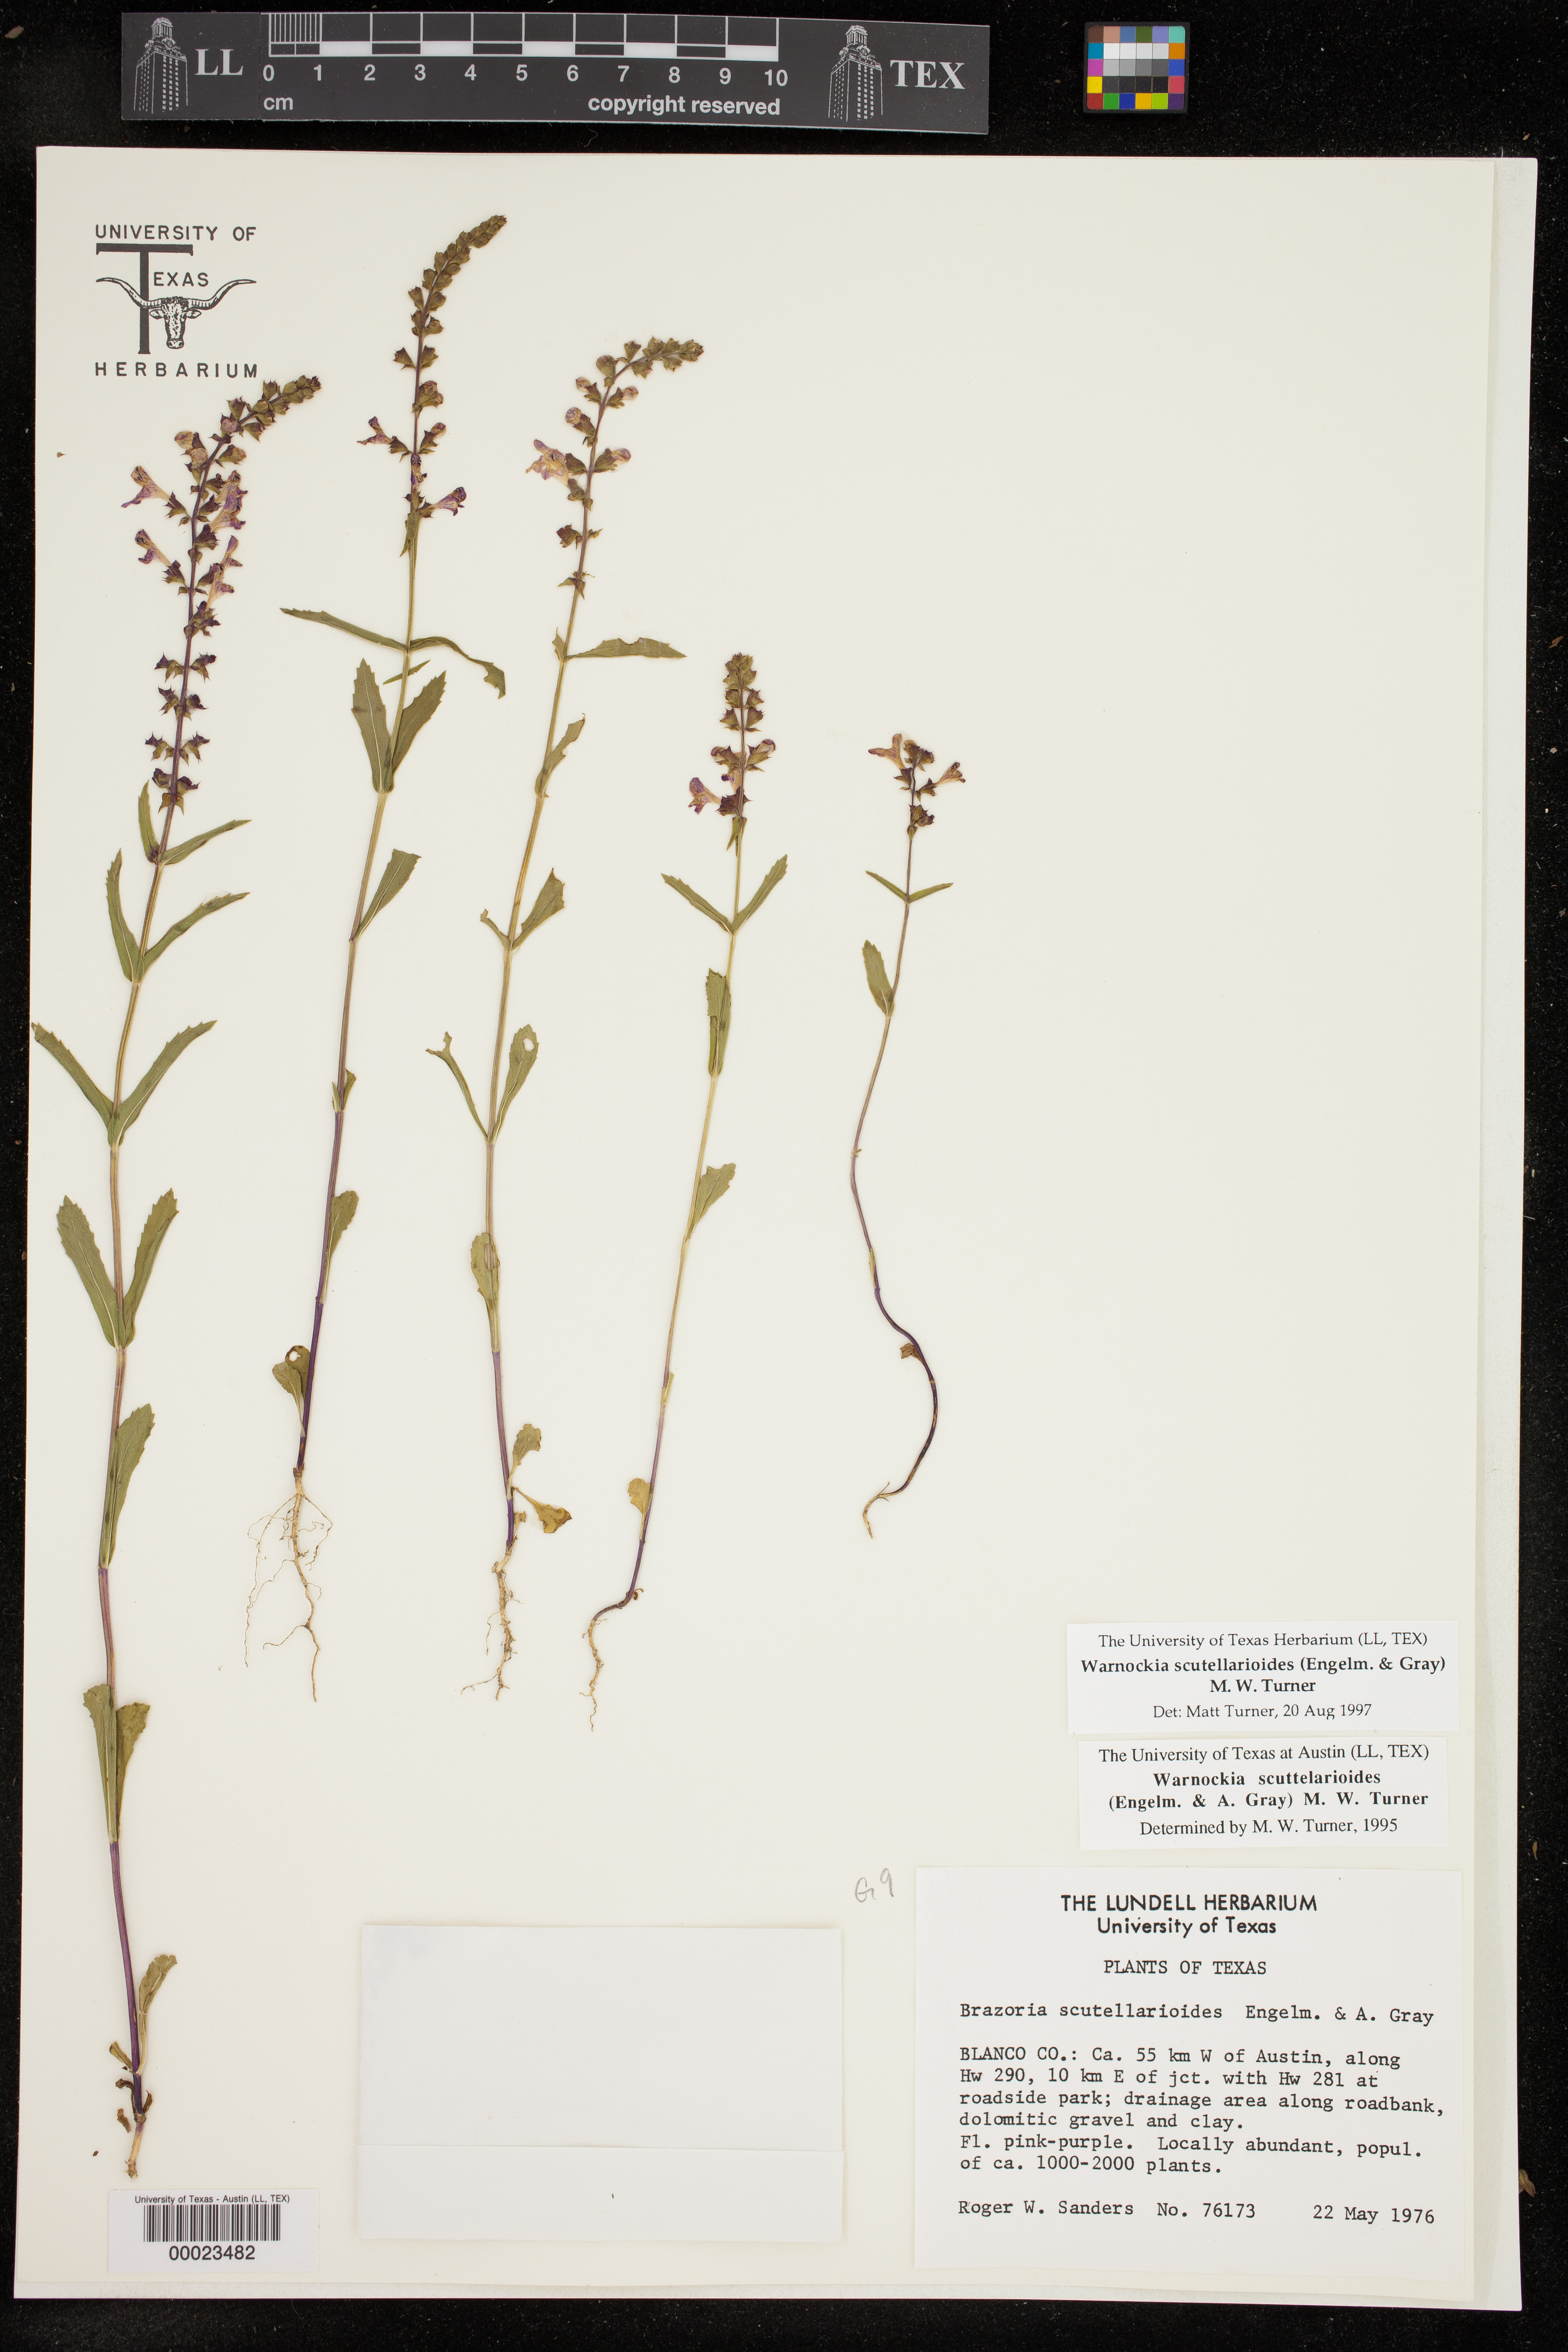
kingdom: Plantae
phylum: Tracheophyta
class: Magnoliopsida
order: Lamiales
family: Lamiaceae
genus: Warnockia
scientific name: Warnockia scutellarioides
